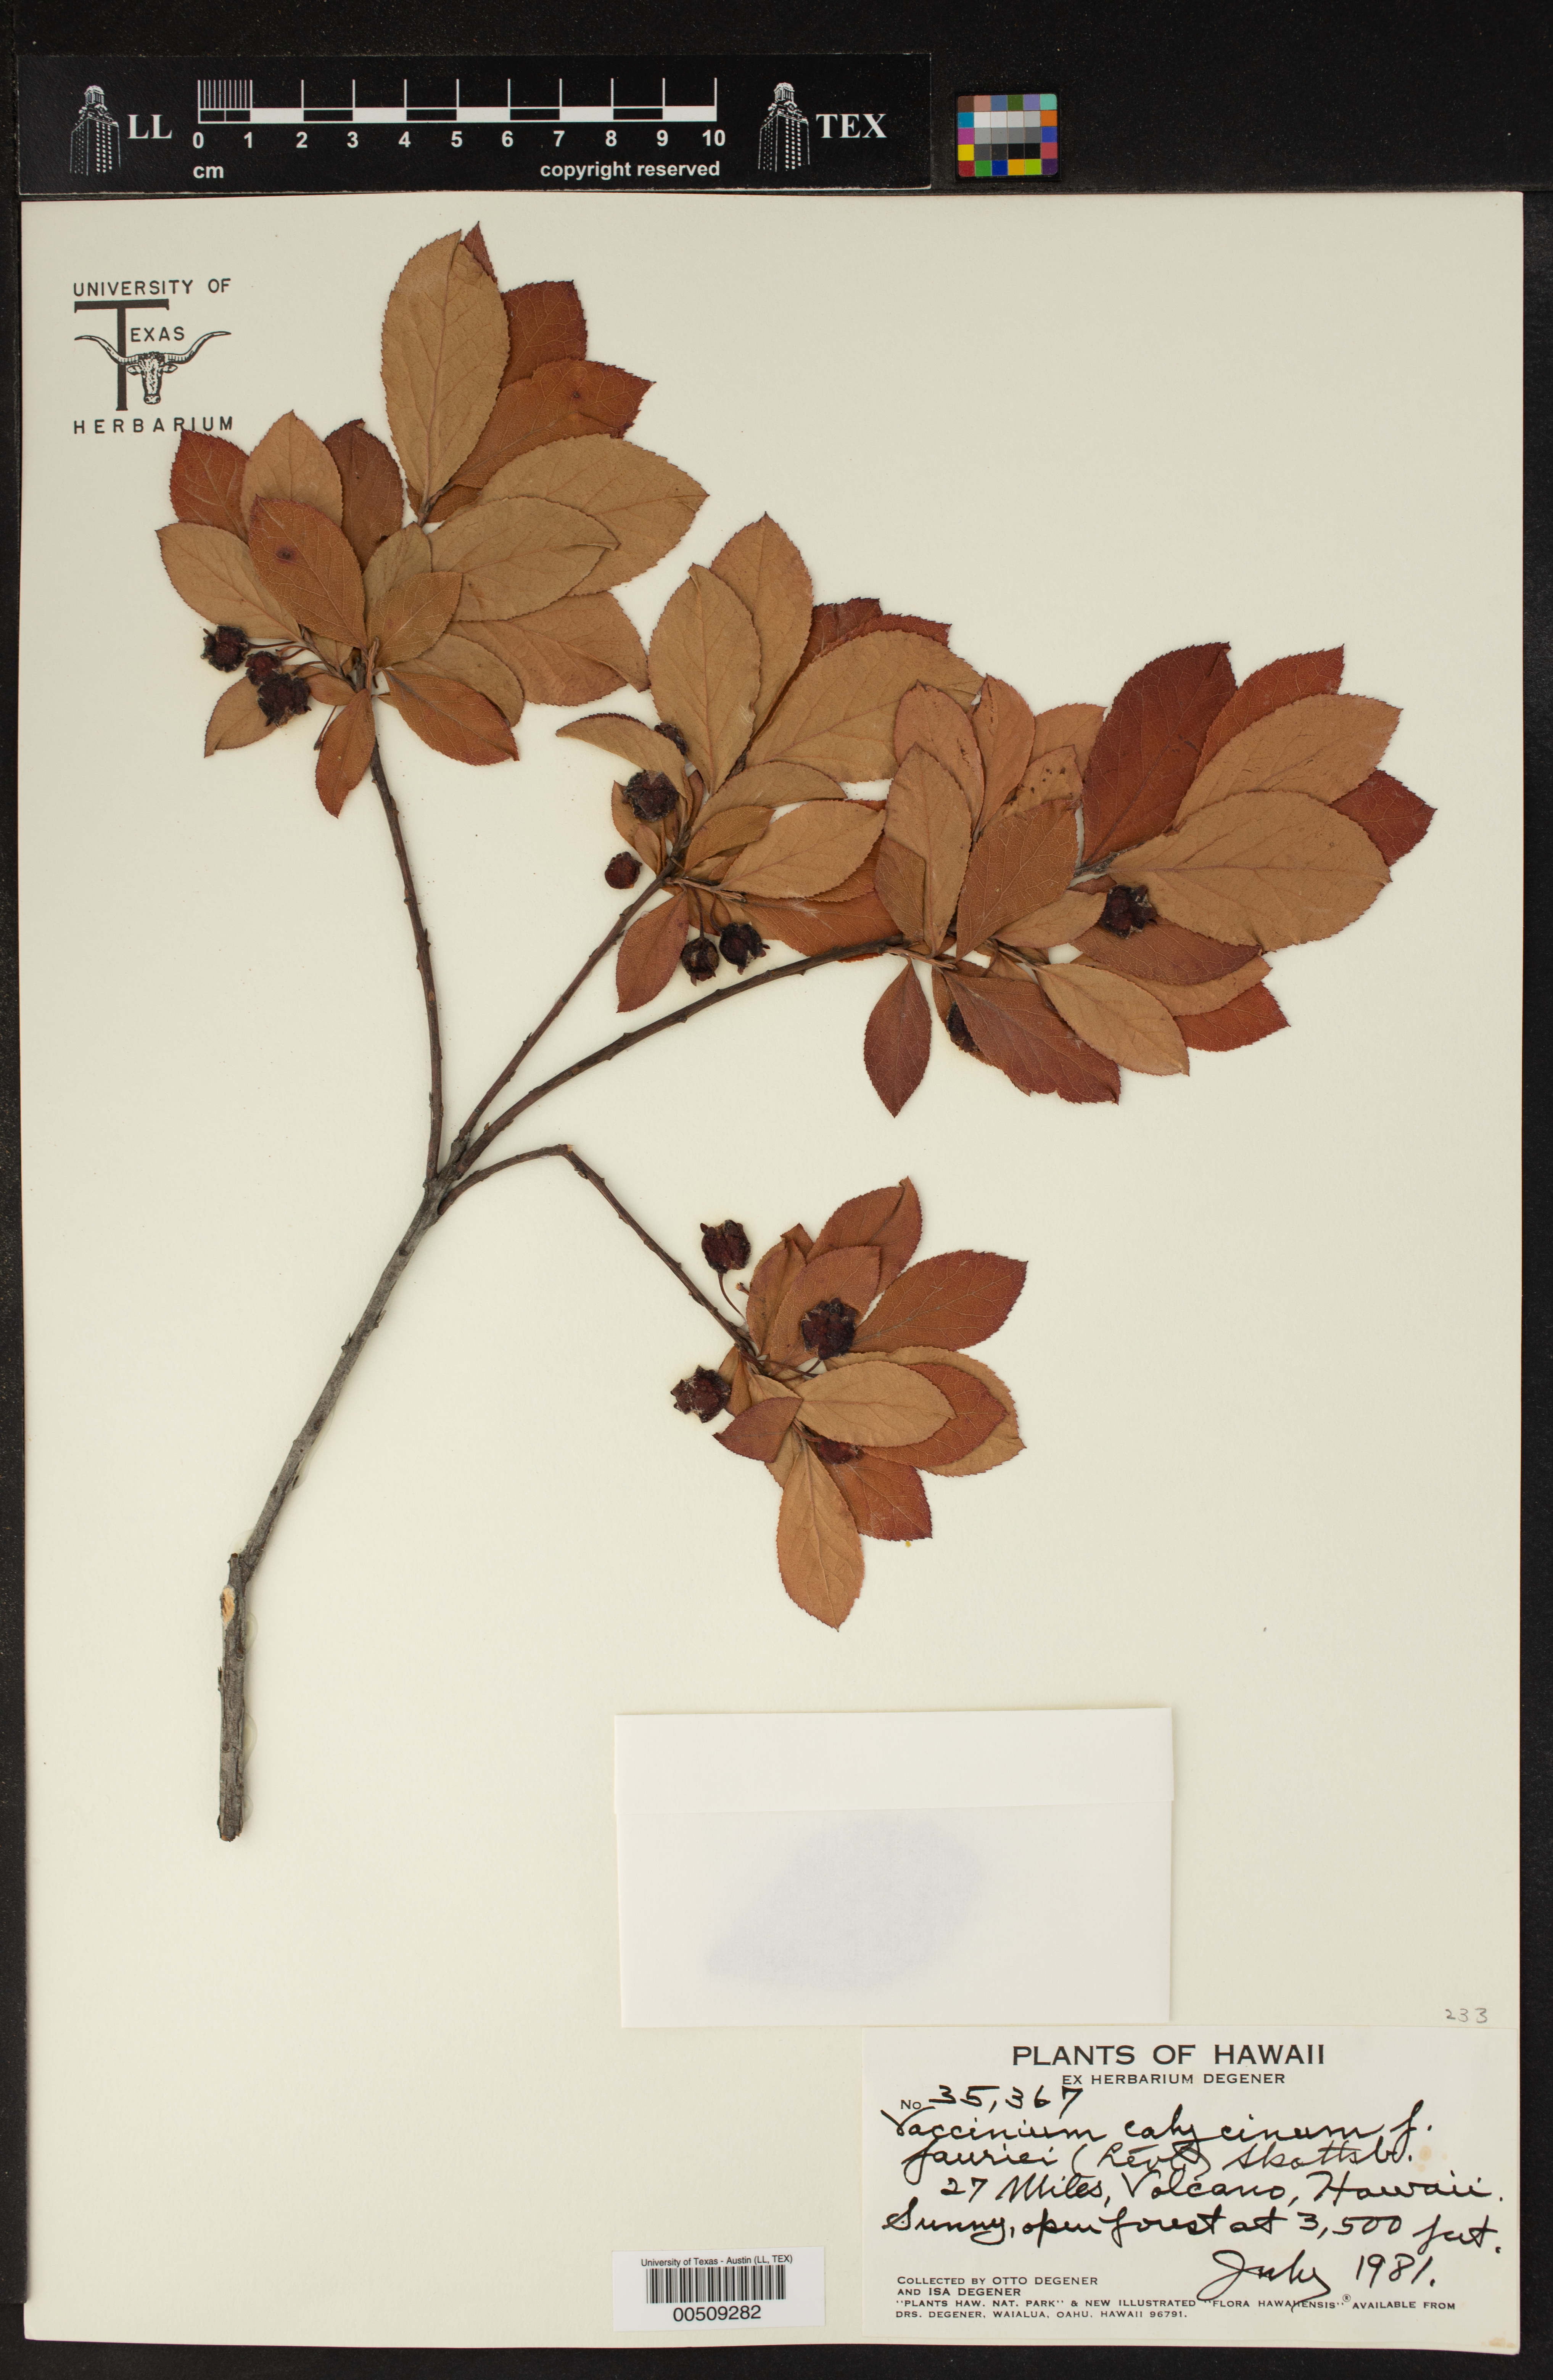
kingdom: Plantae
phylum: Tracheophyta
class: Magnoliopsida
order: Ericales
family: Ericaceae
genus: Vaccinium
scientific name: Vaccinium calycinum
